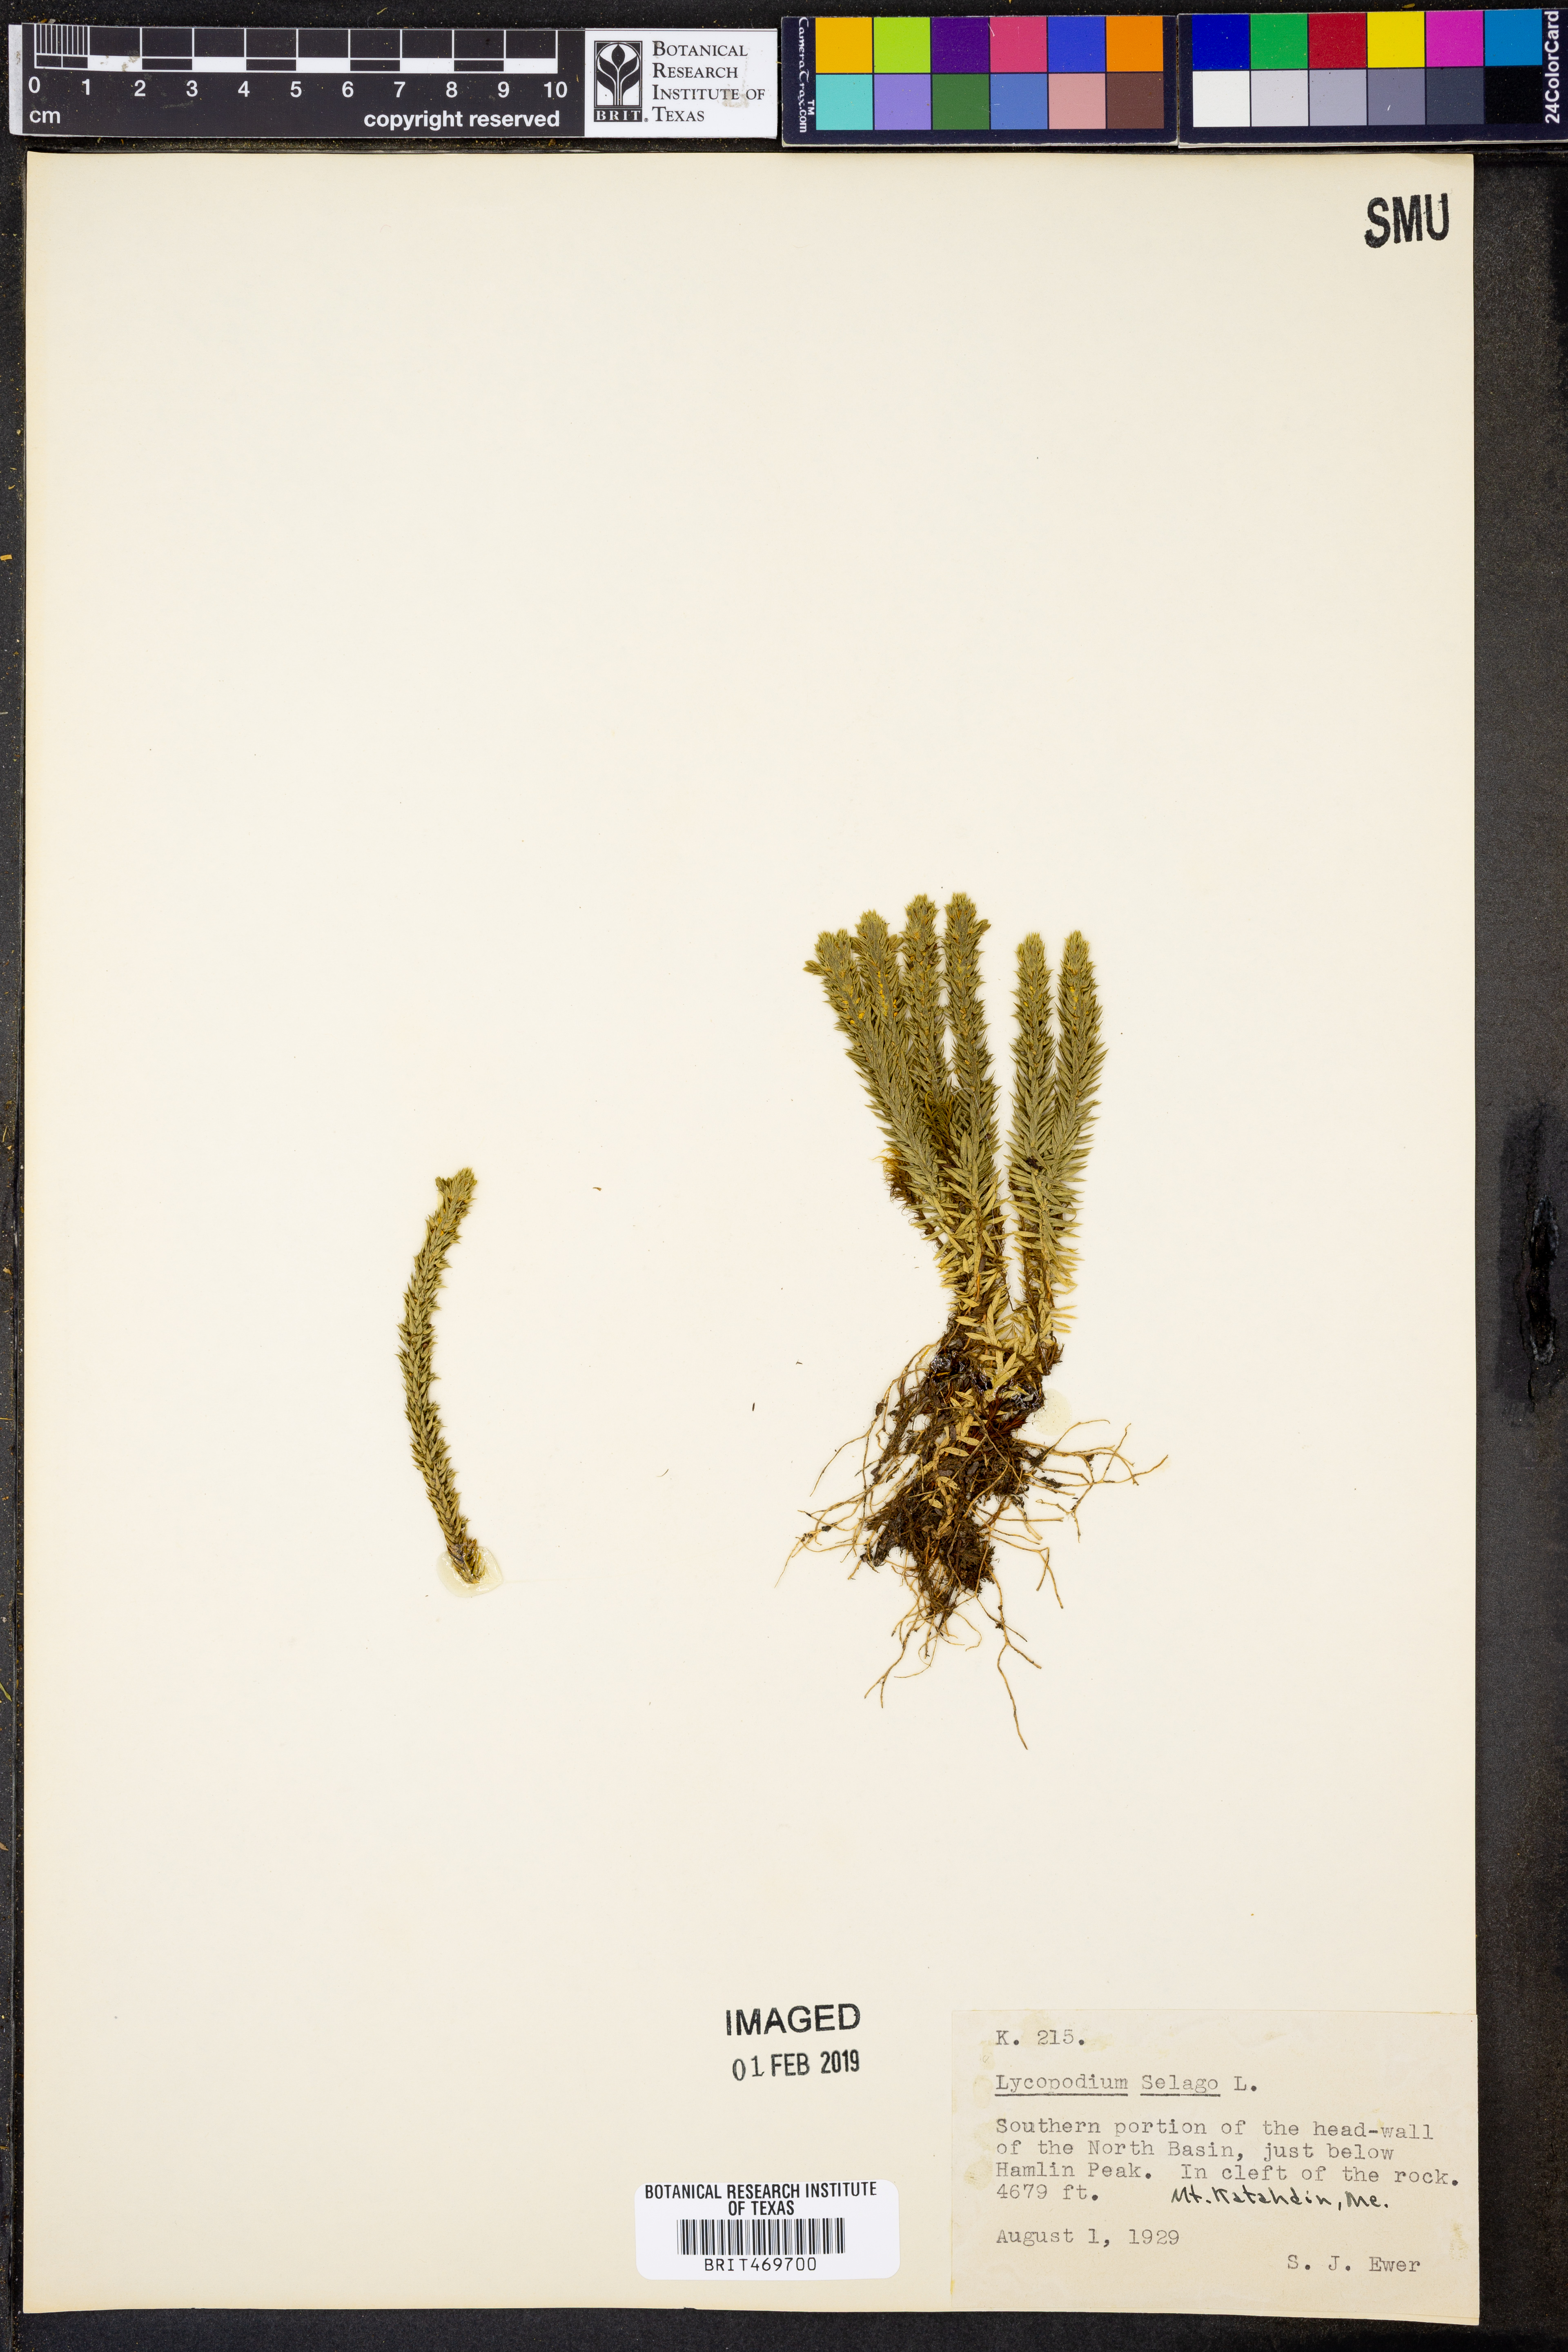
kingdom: Plantae
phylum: Tracheophyta
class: Lycopodiopsida
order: Lycopodiales
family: Lycopodiaceae
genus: Huperzia
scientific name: Huperzia selago
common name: Northern firmoss
